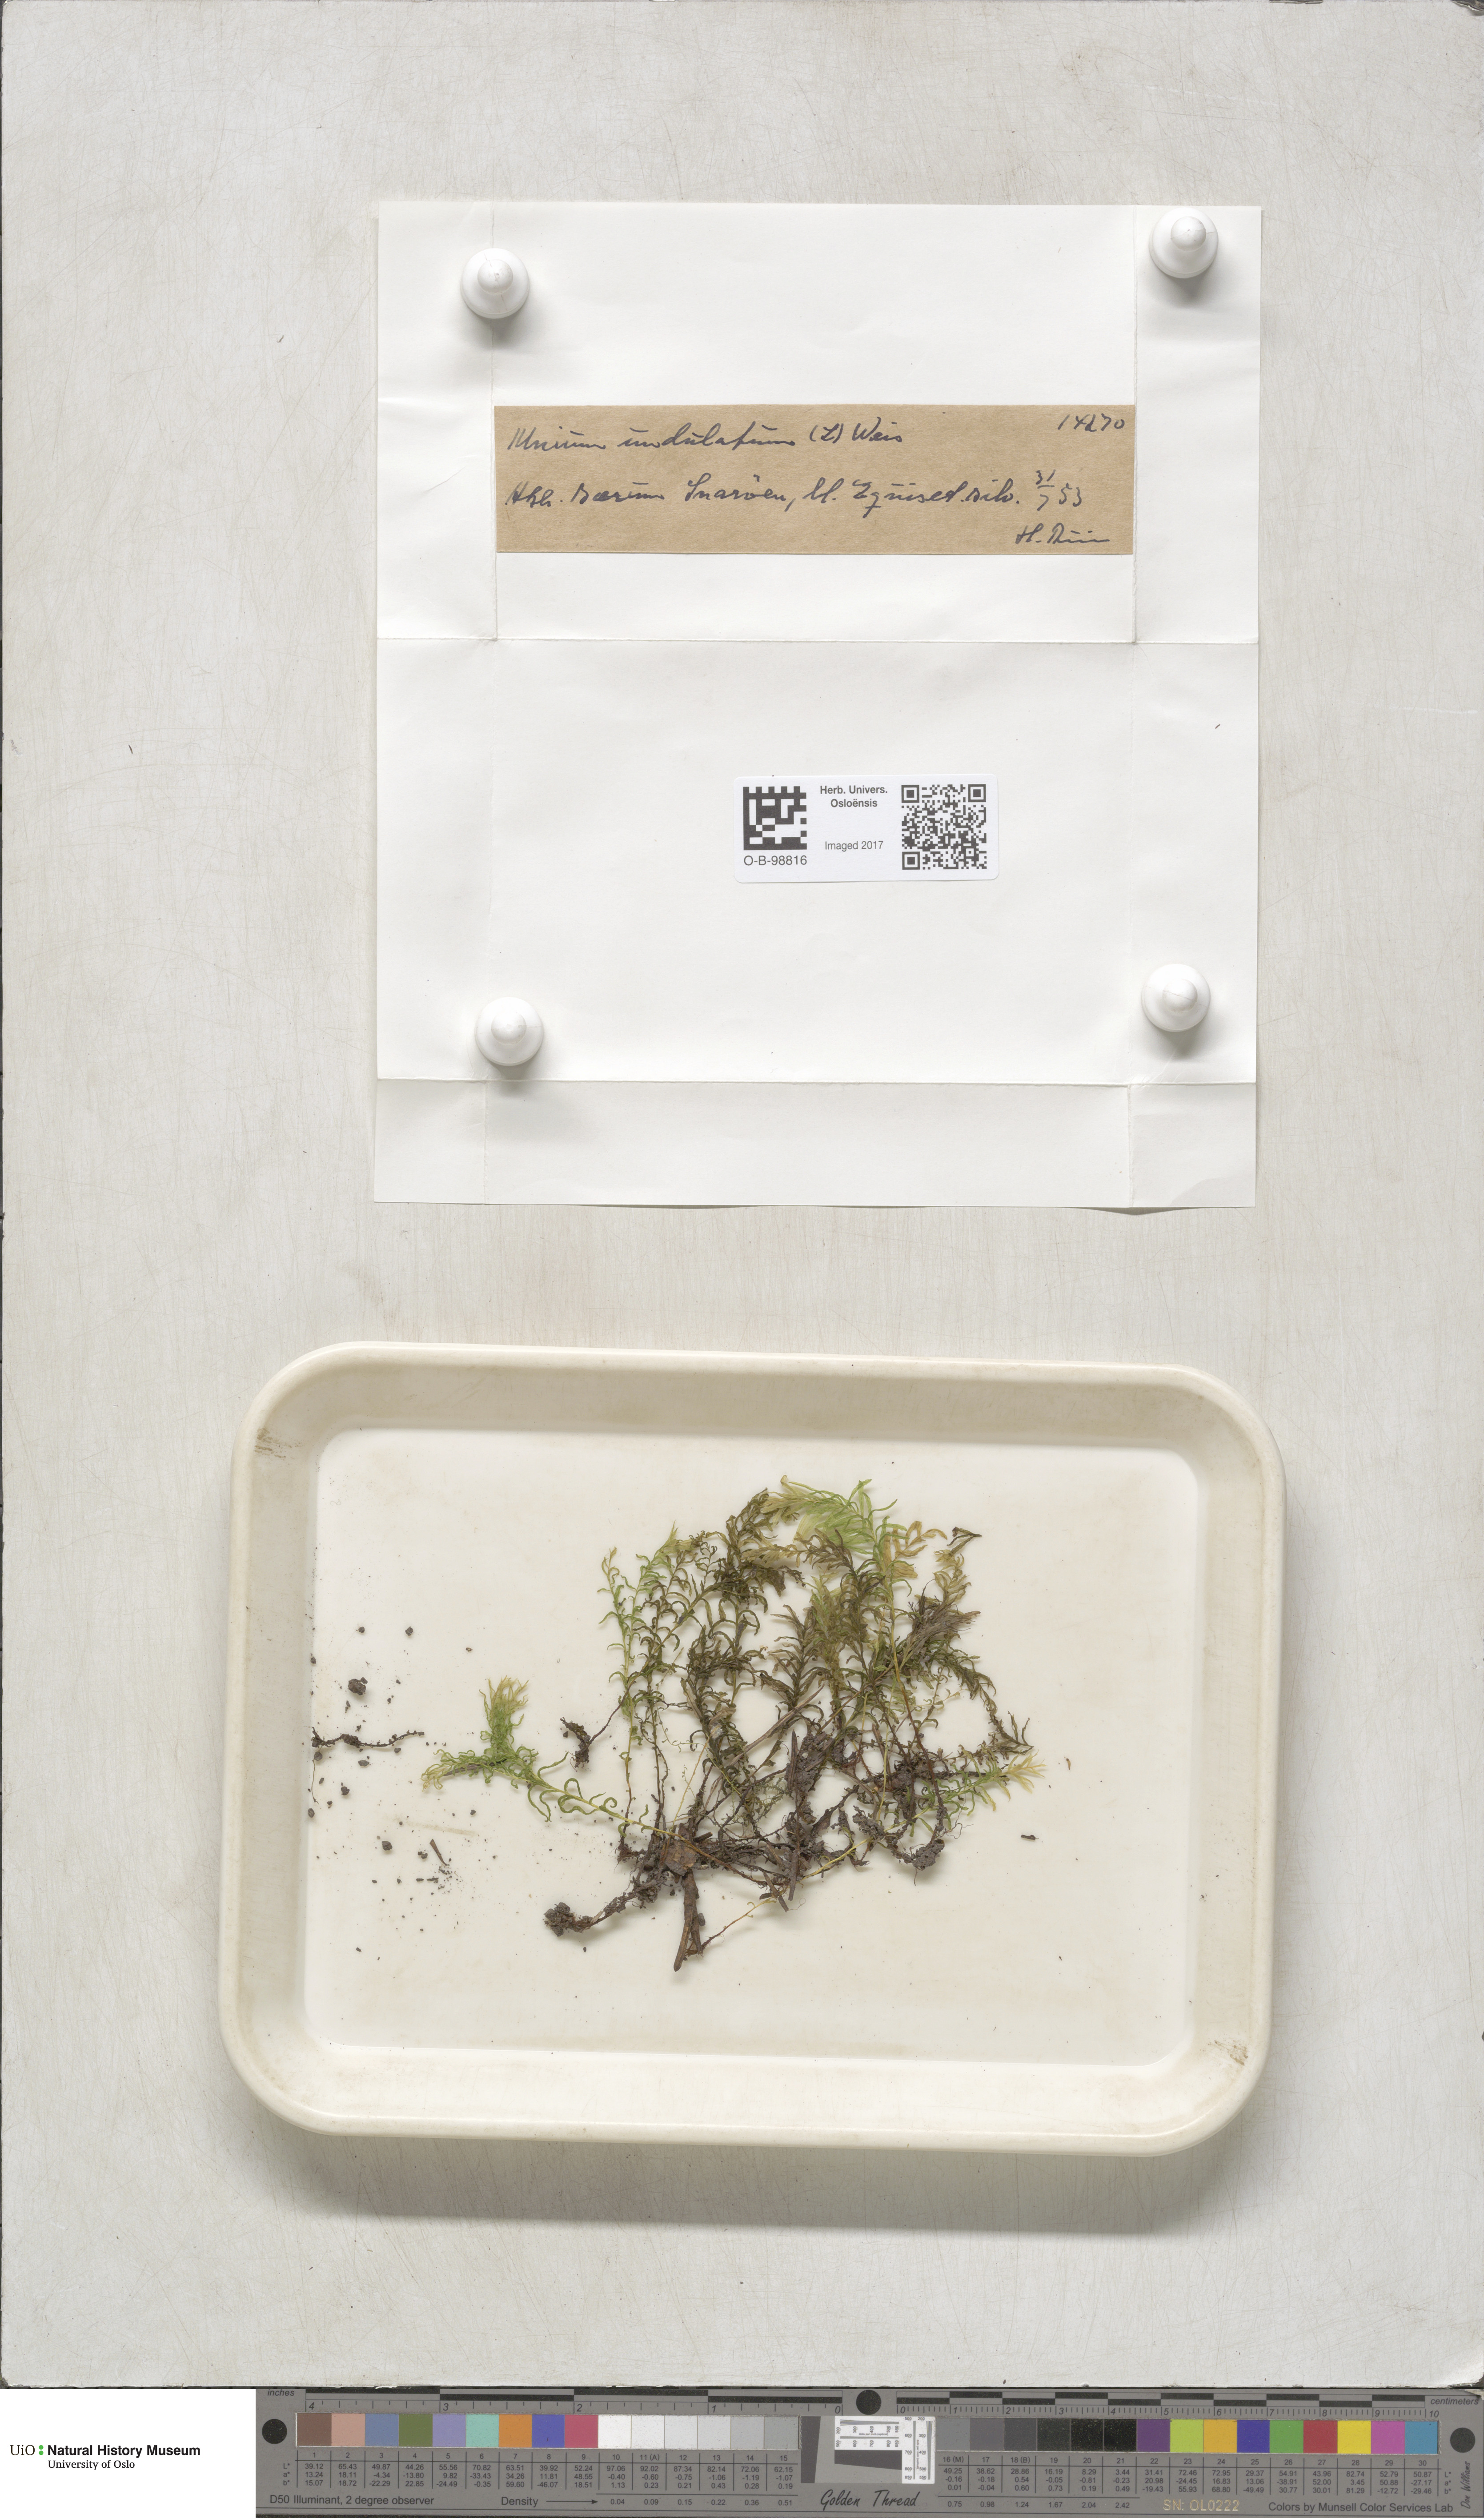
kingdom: Plantae
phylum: Bryophyta
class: Bryopsida
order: Bryales
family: Mniaceae
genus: Plagiomnium
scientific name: Plagiomnium undulatum
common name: Hart's-tongue thyme-moss
